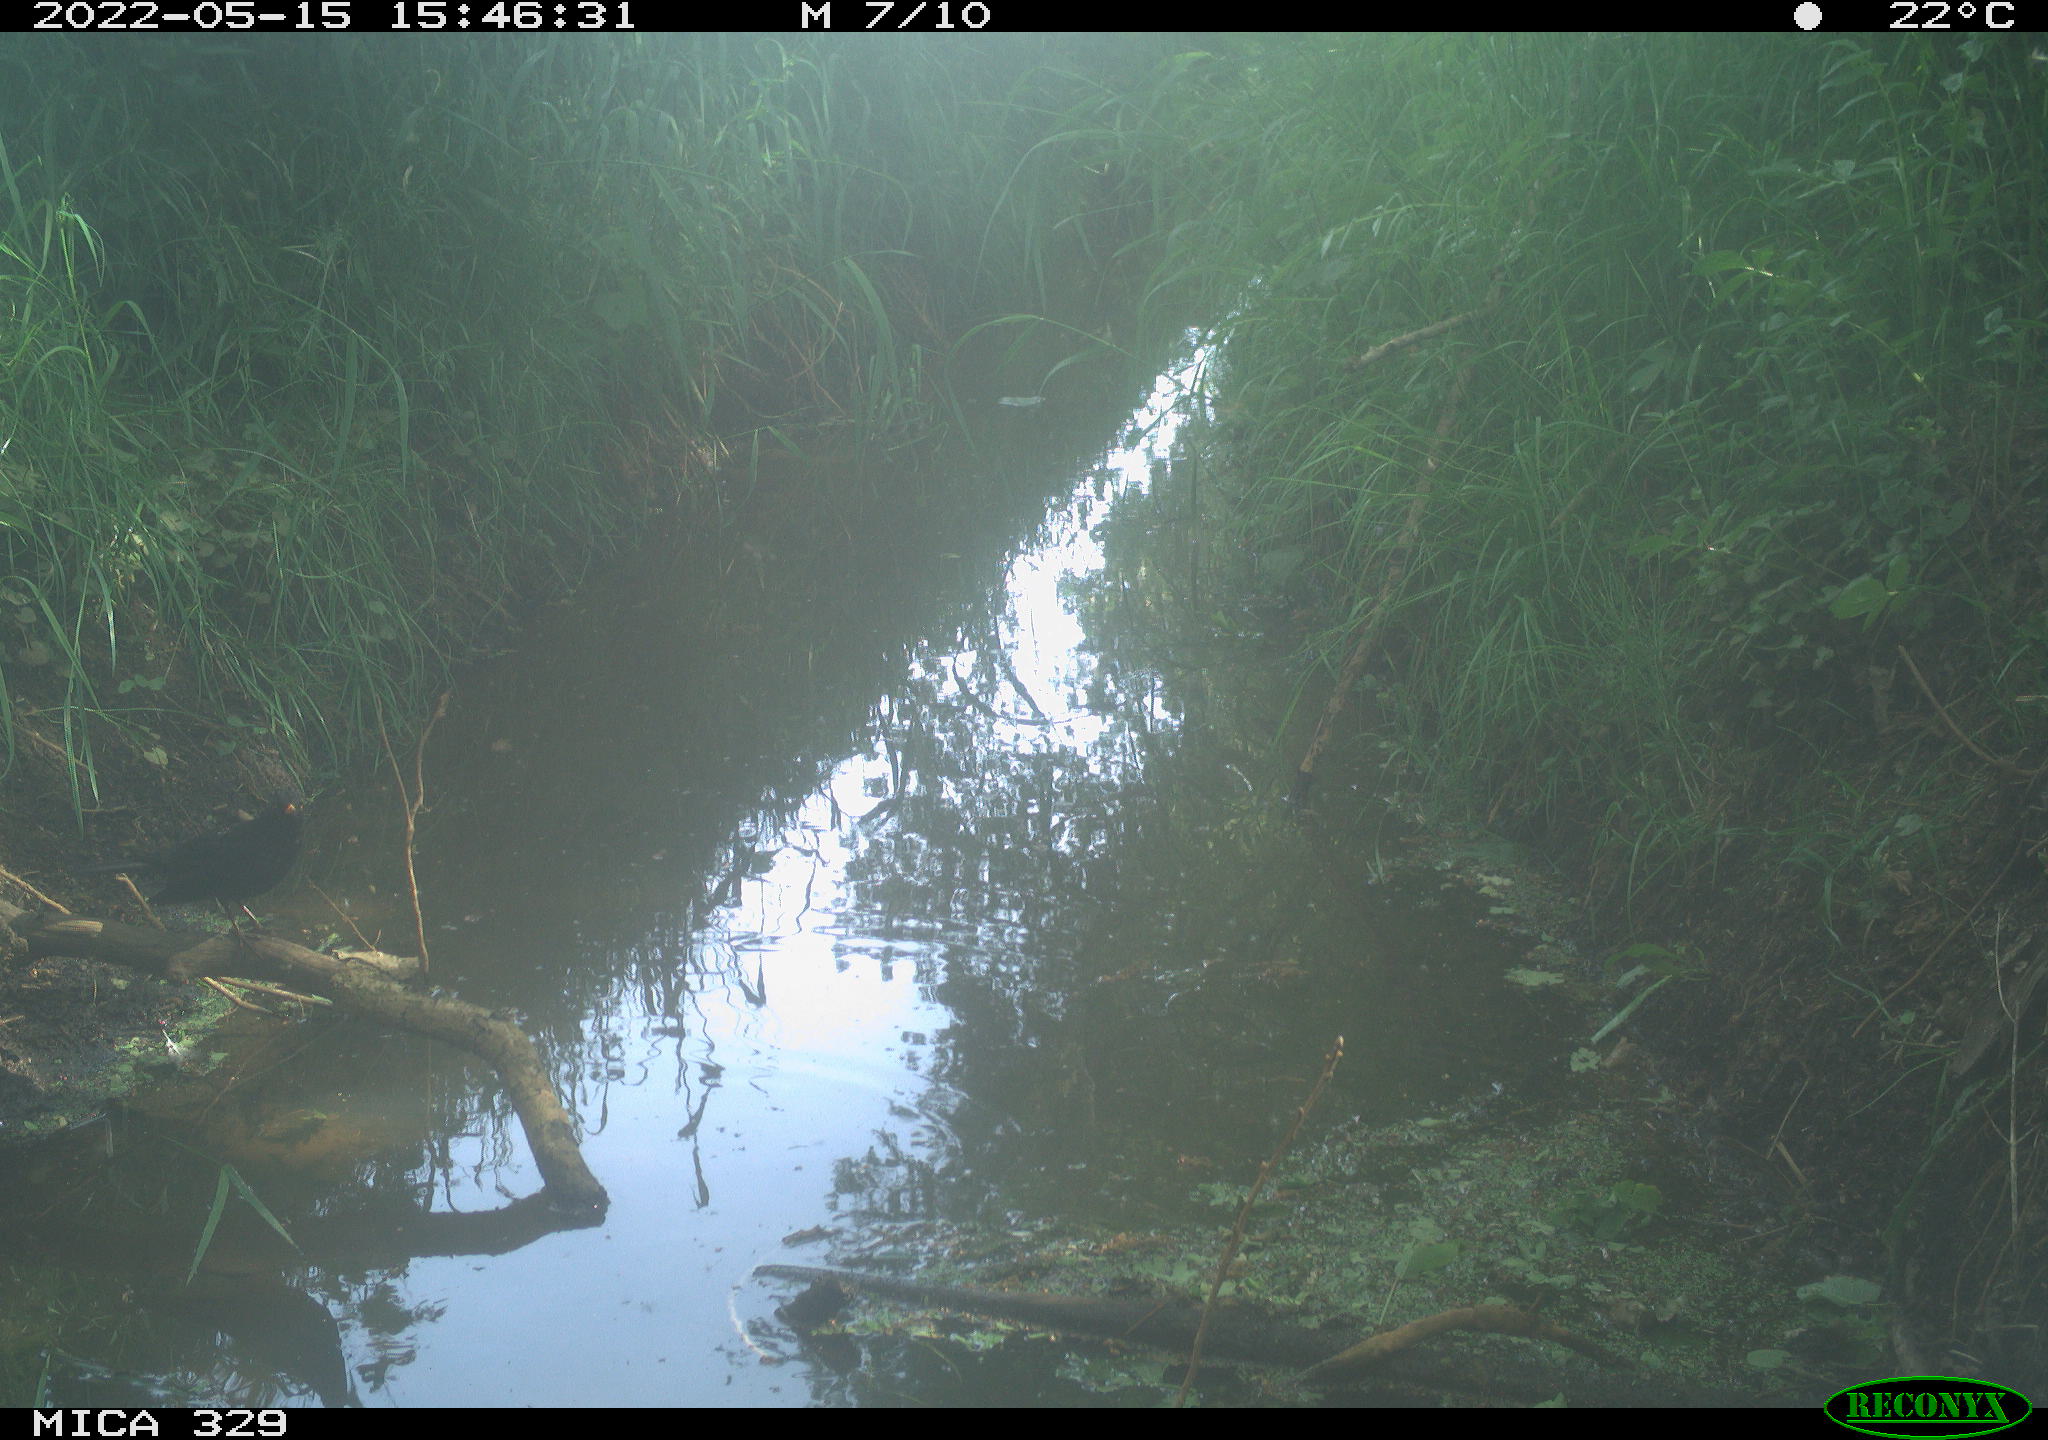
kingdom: Animalia
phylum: Chordata
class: Aves
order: Passeriformes
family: Turdidae
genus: Turdus
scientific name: Turdus merula
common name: Common blackbird
